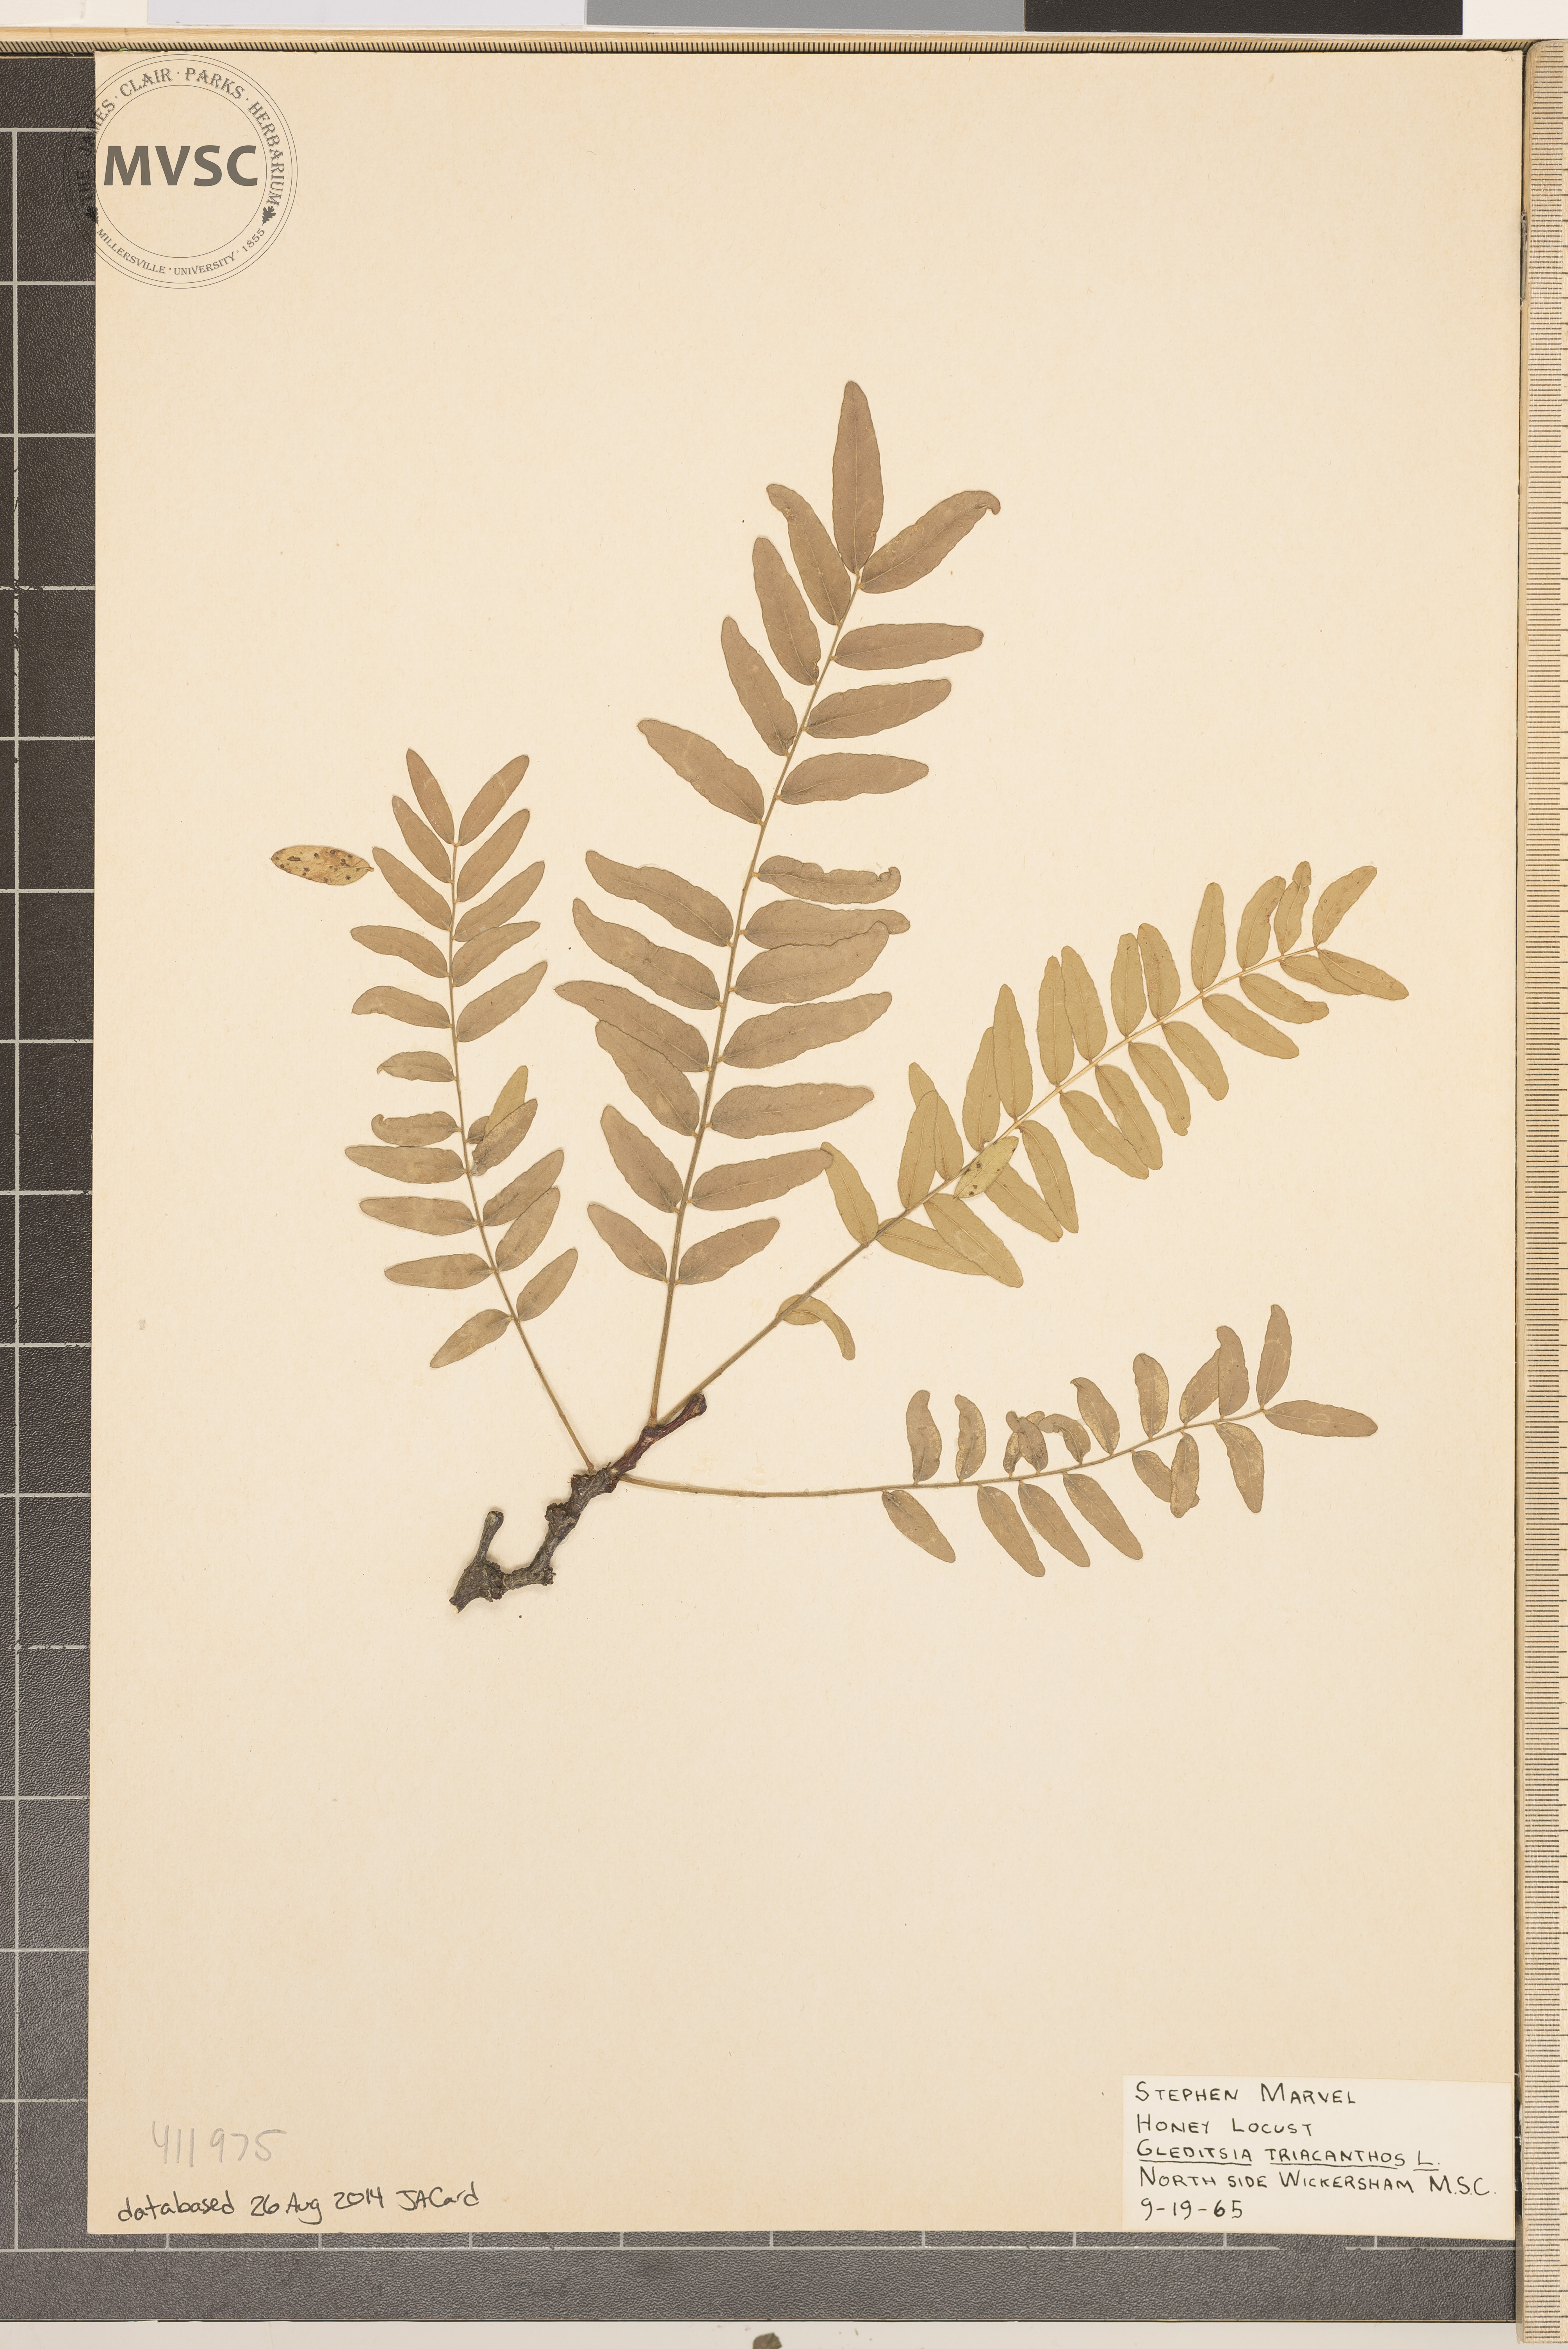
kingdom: Plantae
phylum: Tracheophyta
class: Magnoliopsida
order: Fabales
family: Fabaceae
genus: Gleditsia
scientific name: Gleditsia triacanthos
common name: Honey Locust
